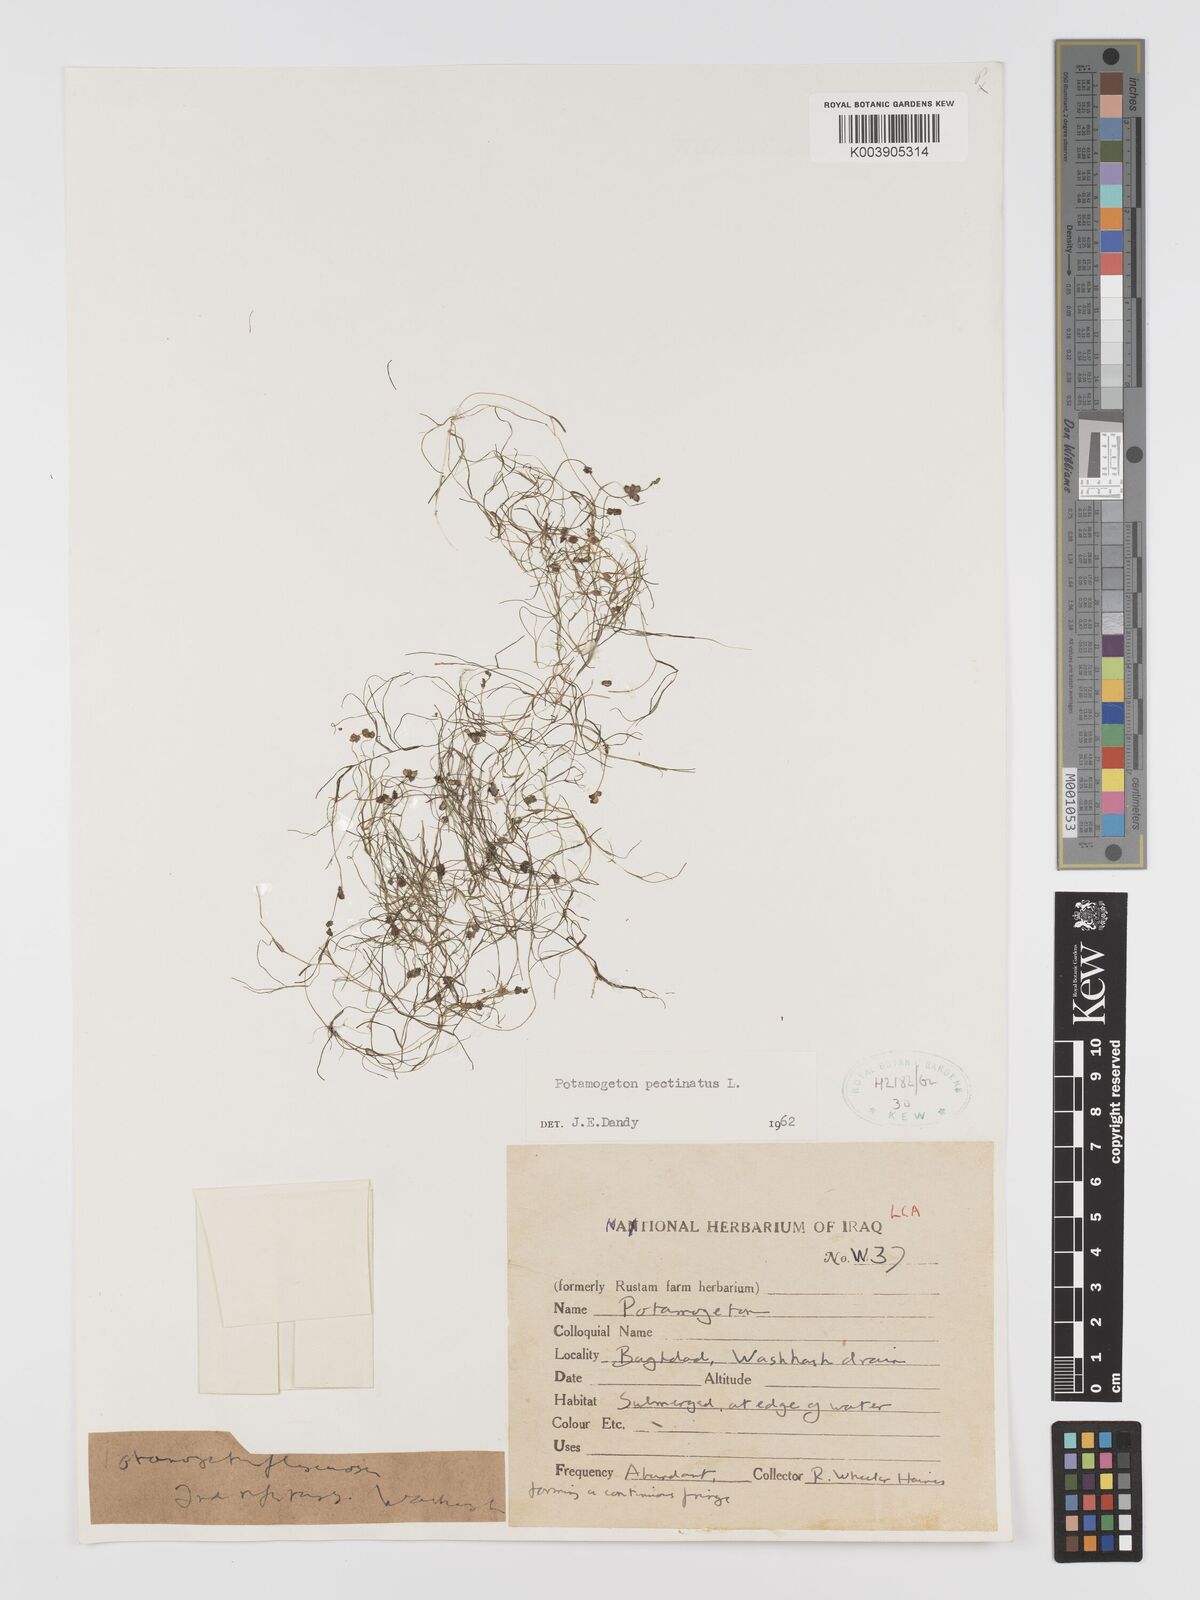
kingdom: Plantae
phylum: Tracheophyta
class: Liliopsida
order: Alismatales
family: Potamogetonaceae
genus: Stuckenia
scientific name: Stuckenia pectinata
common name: Sago pondweed
